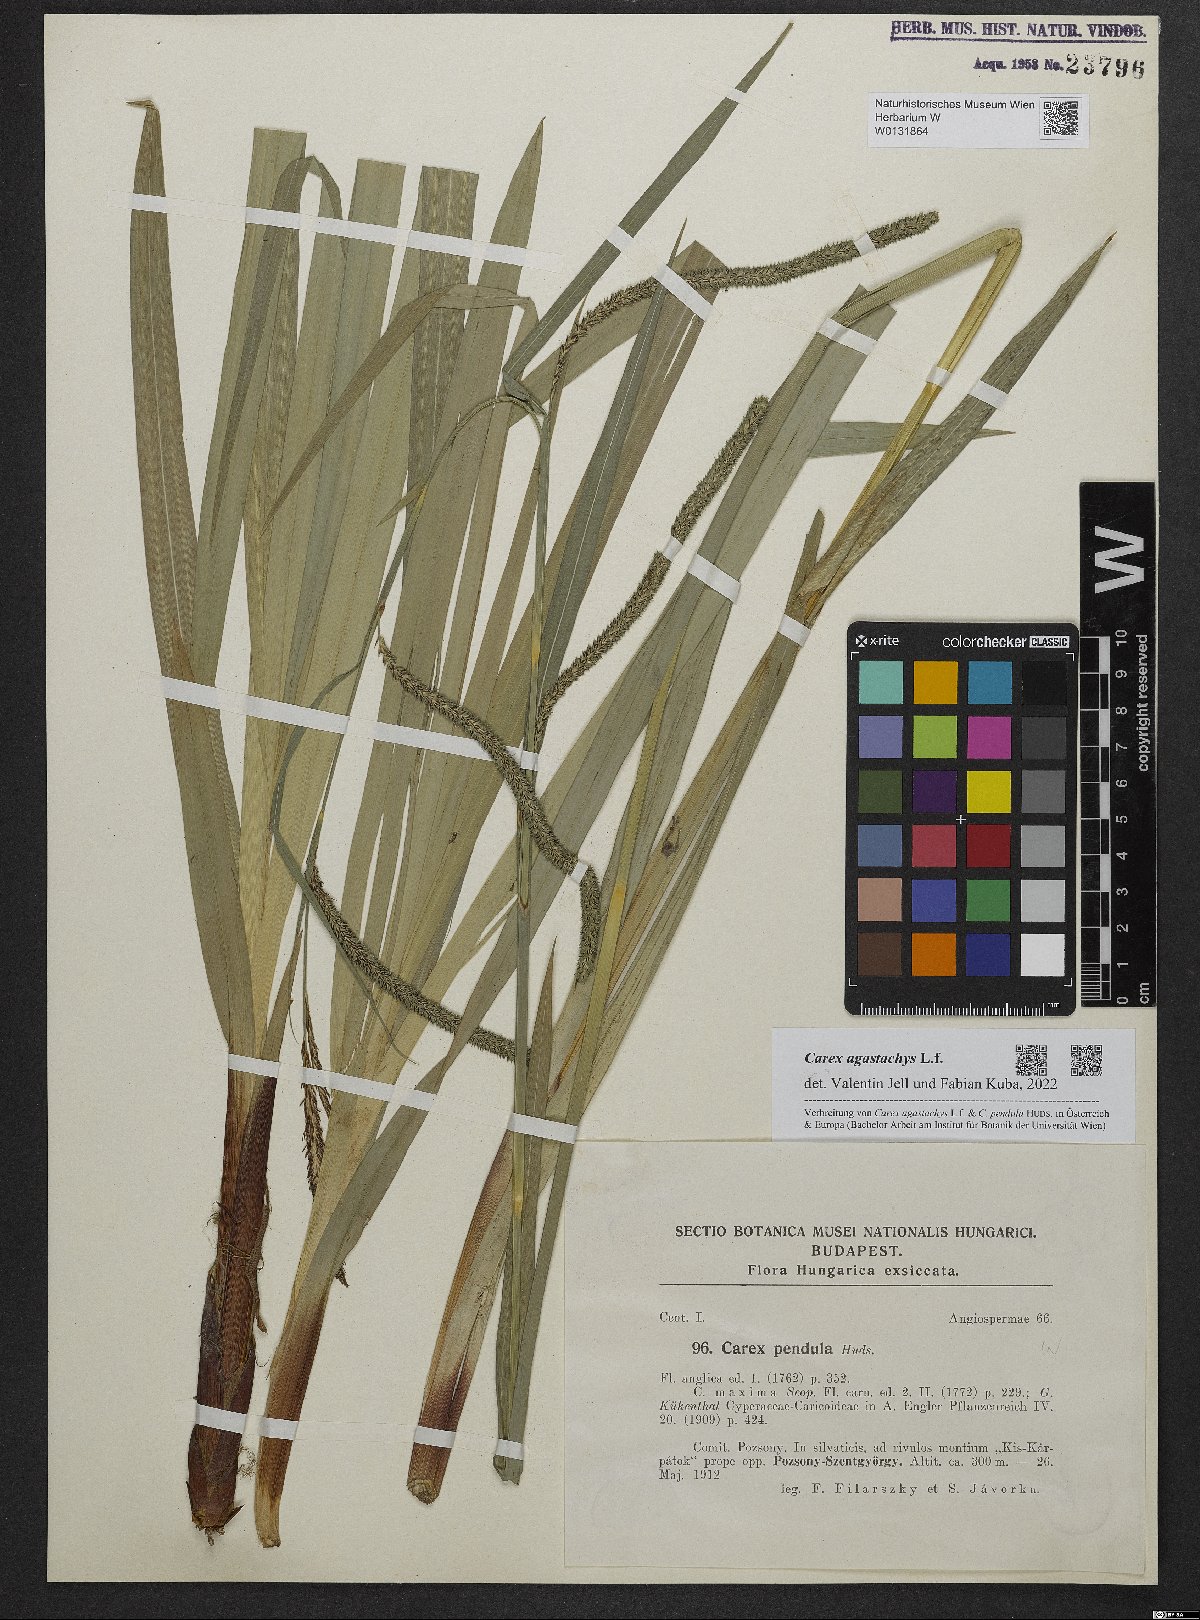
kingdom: Plantae
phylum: Tracheophyta
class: Liliopsida
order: Poales
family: Cyperaceae
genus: Carex
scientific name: Carex agastachys
